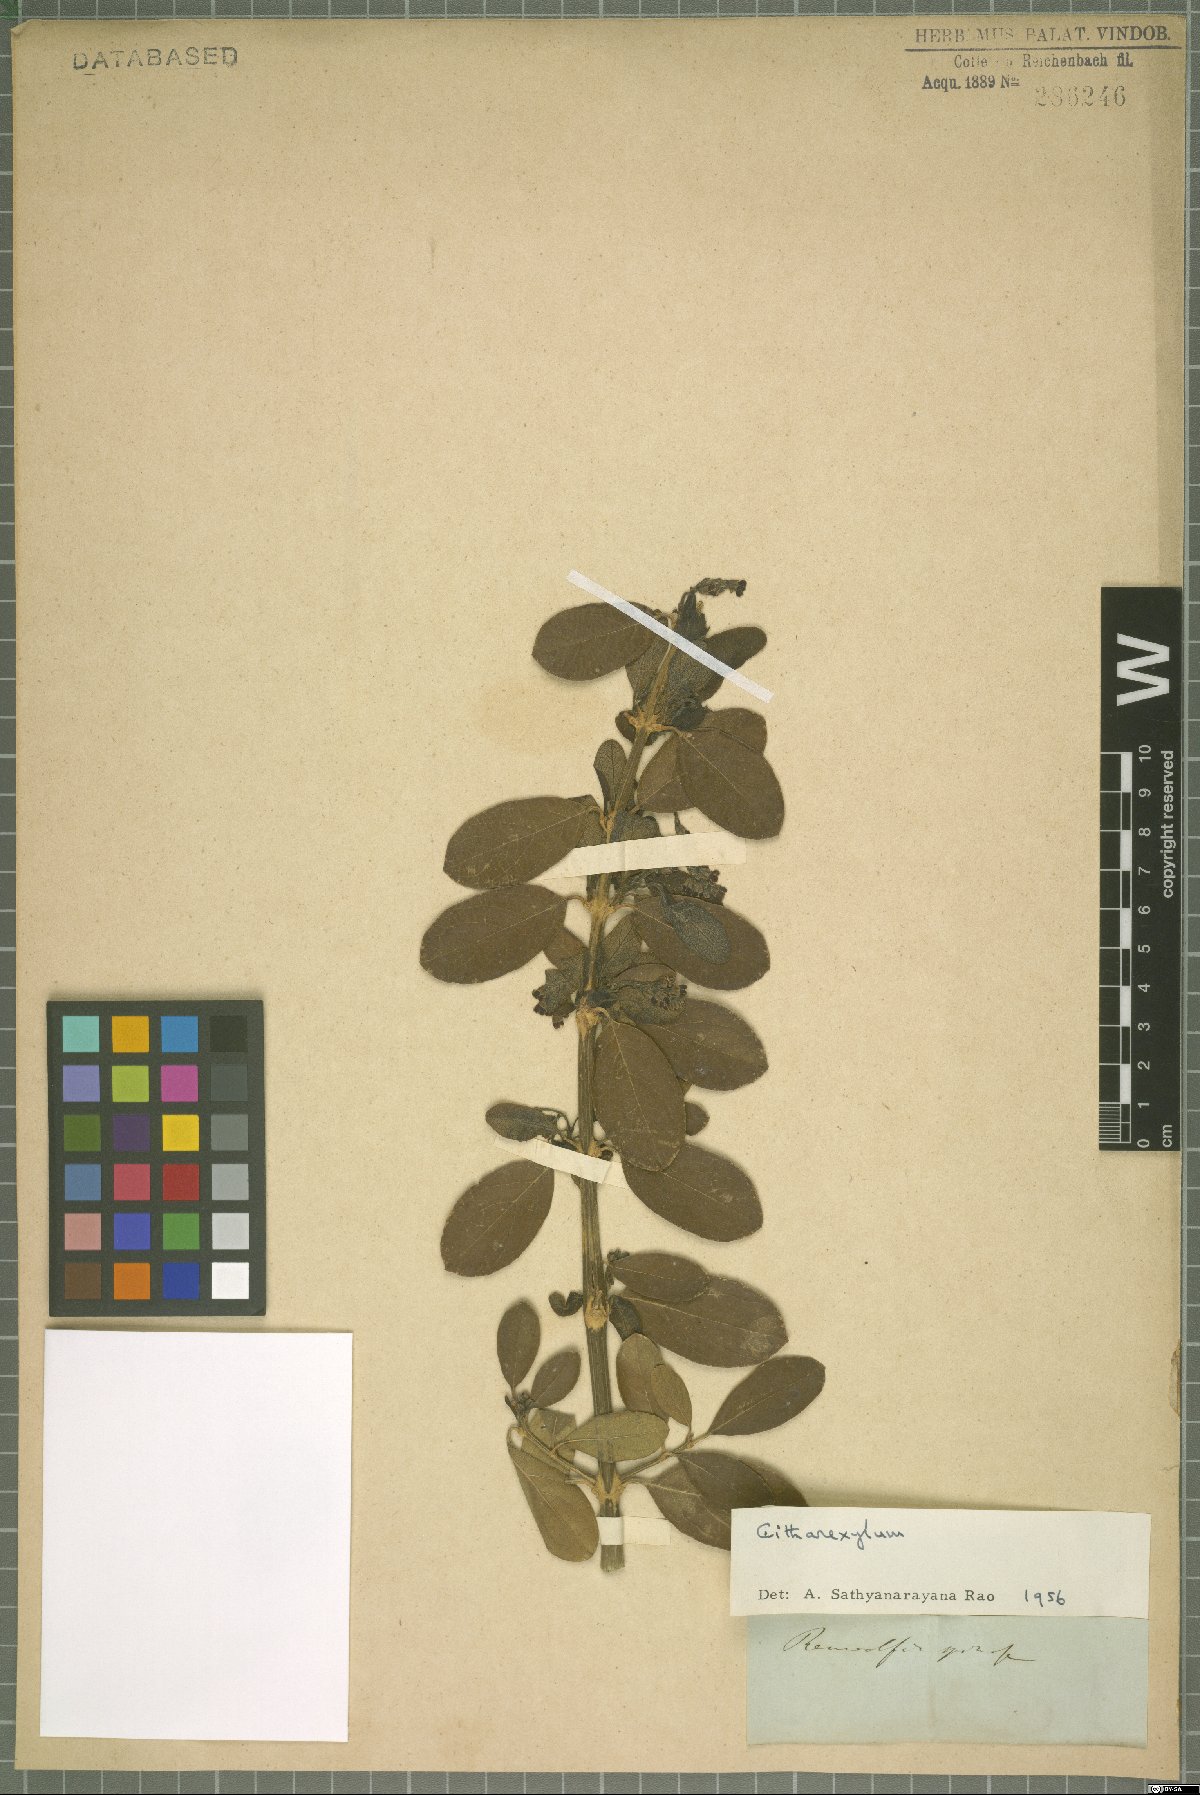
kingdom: Plantae
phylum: Tracheophyta
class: Magnoliopsida
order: Lamiales
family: Verbenaceae
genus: Citharexylum
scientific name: Citharexylum
